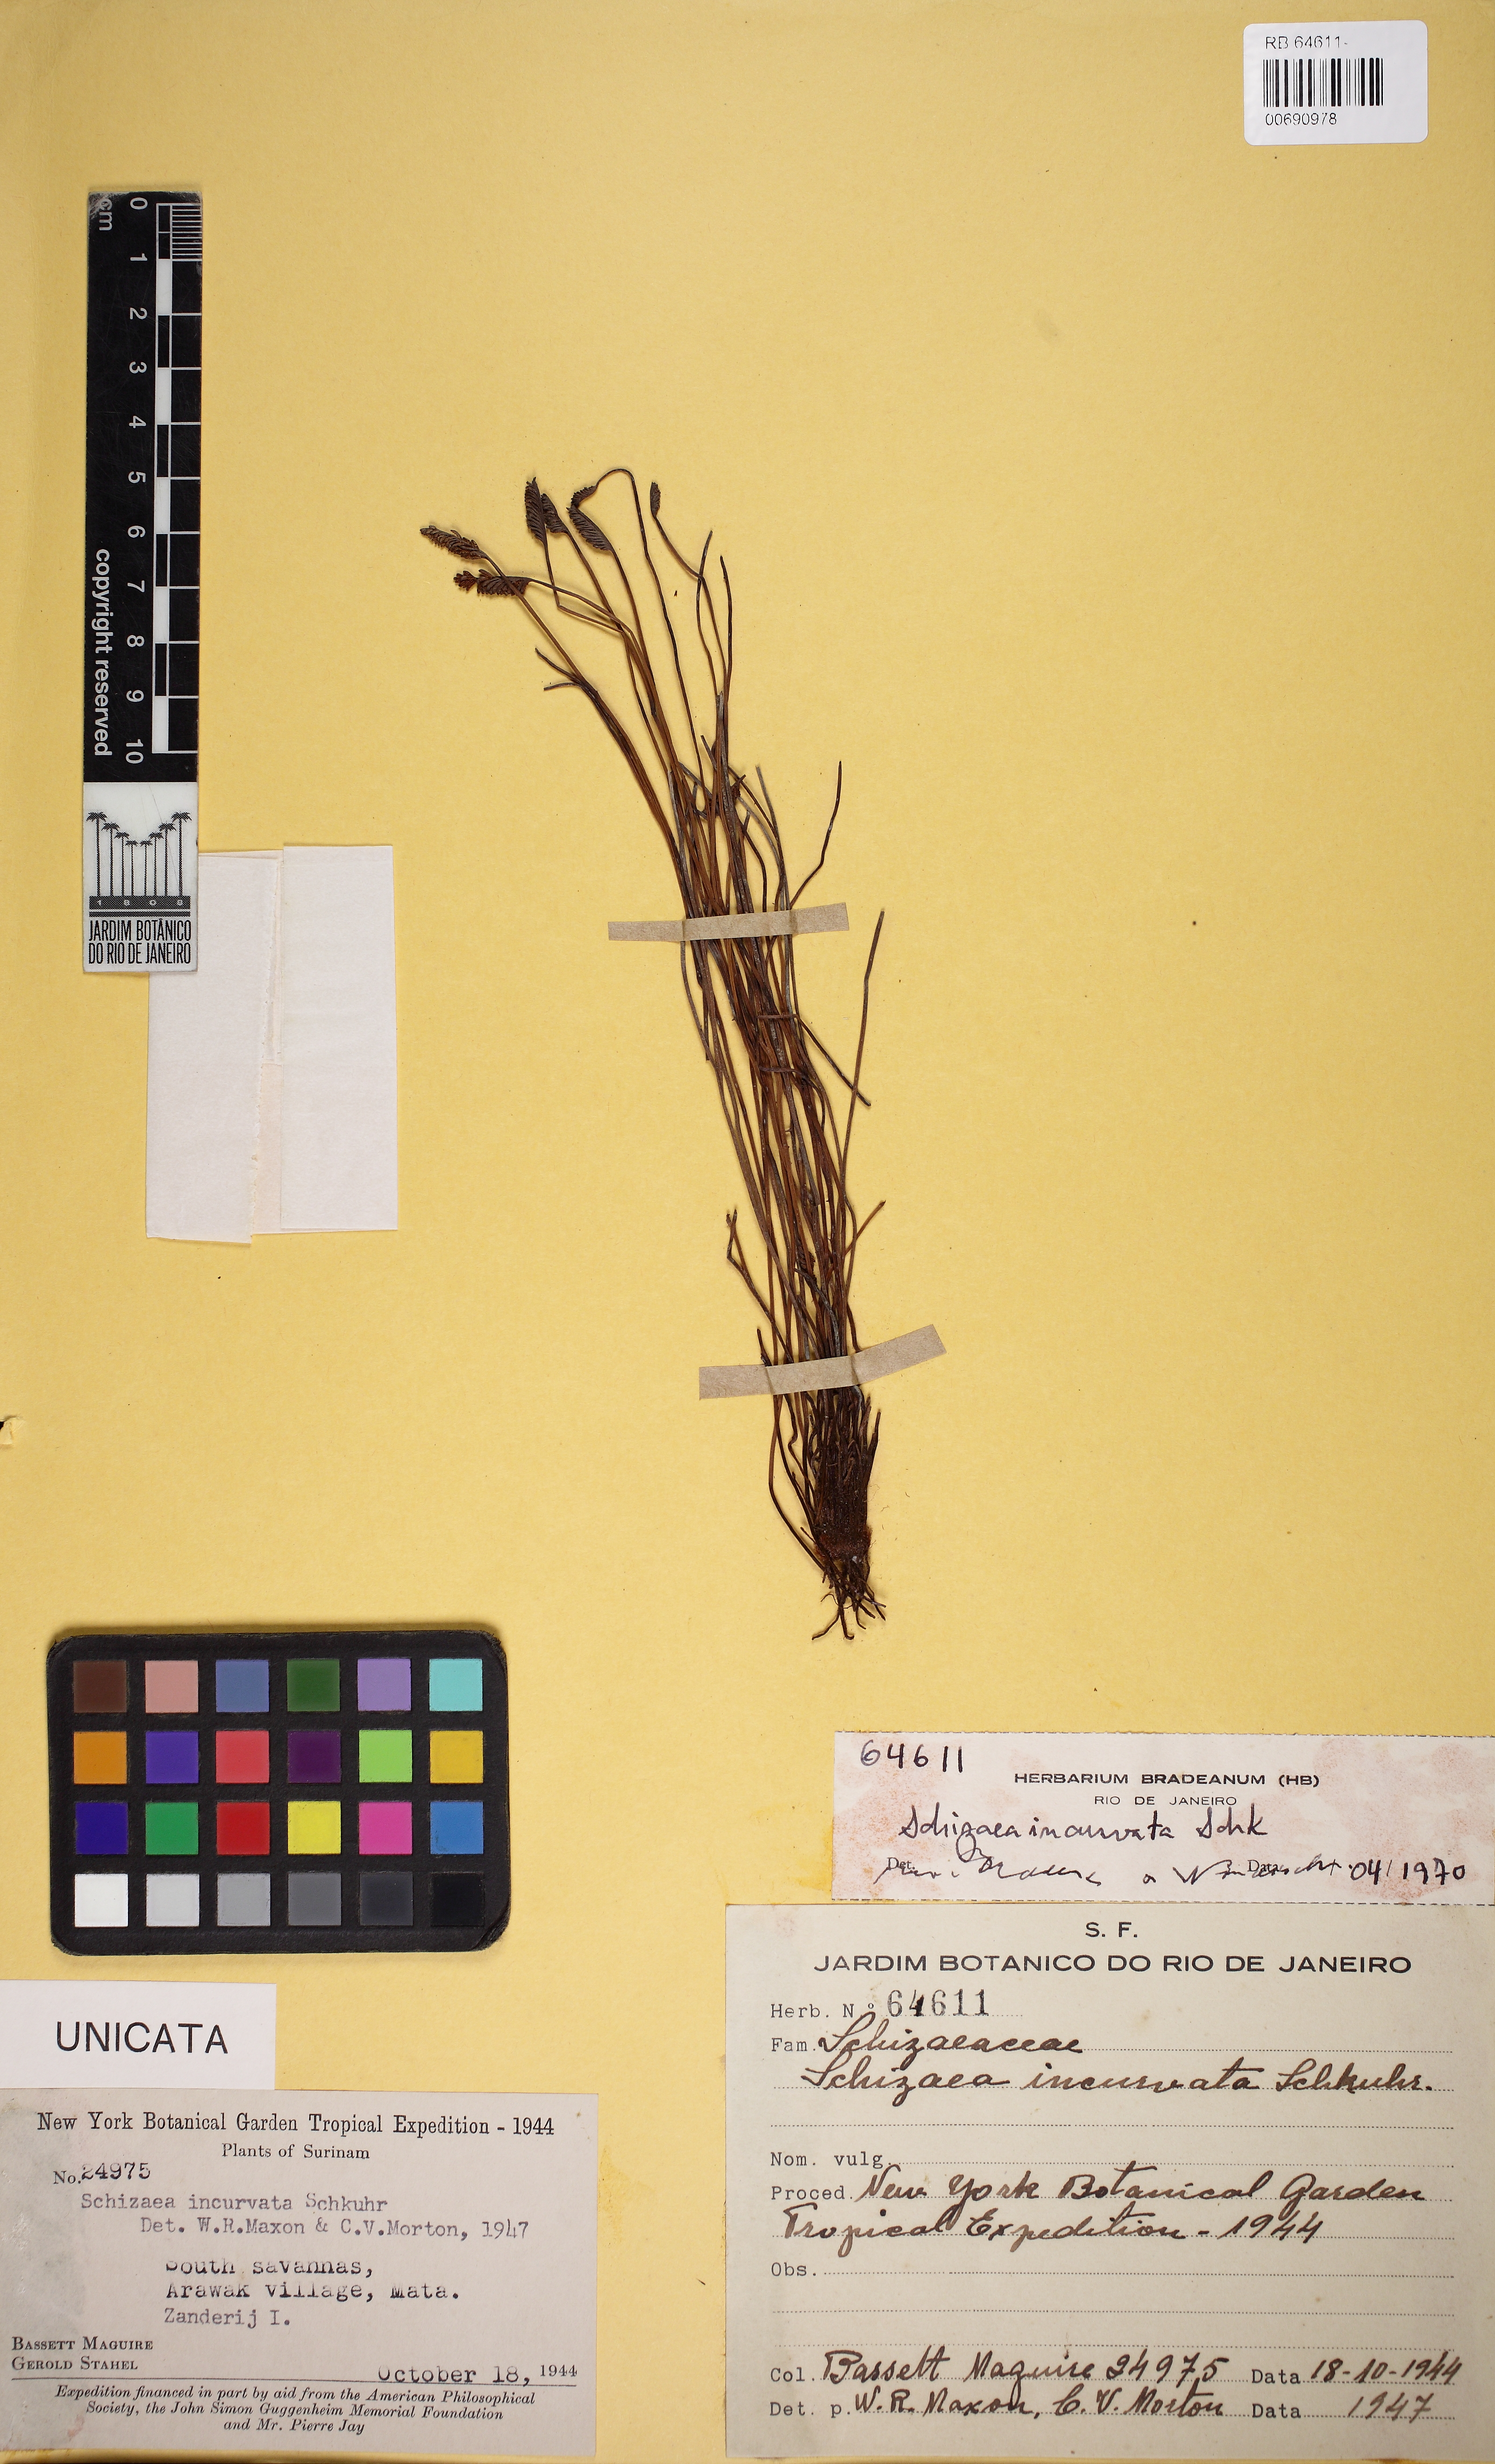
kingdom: Plantae
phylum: Tracheophyta
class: Polypodiopsida
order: Schizaeales
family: Schizaeaceae
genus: Schizaea
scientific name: Schizaea incurvata
